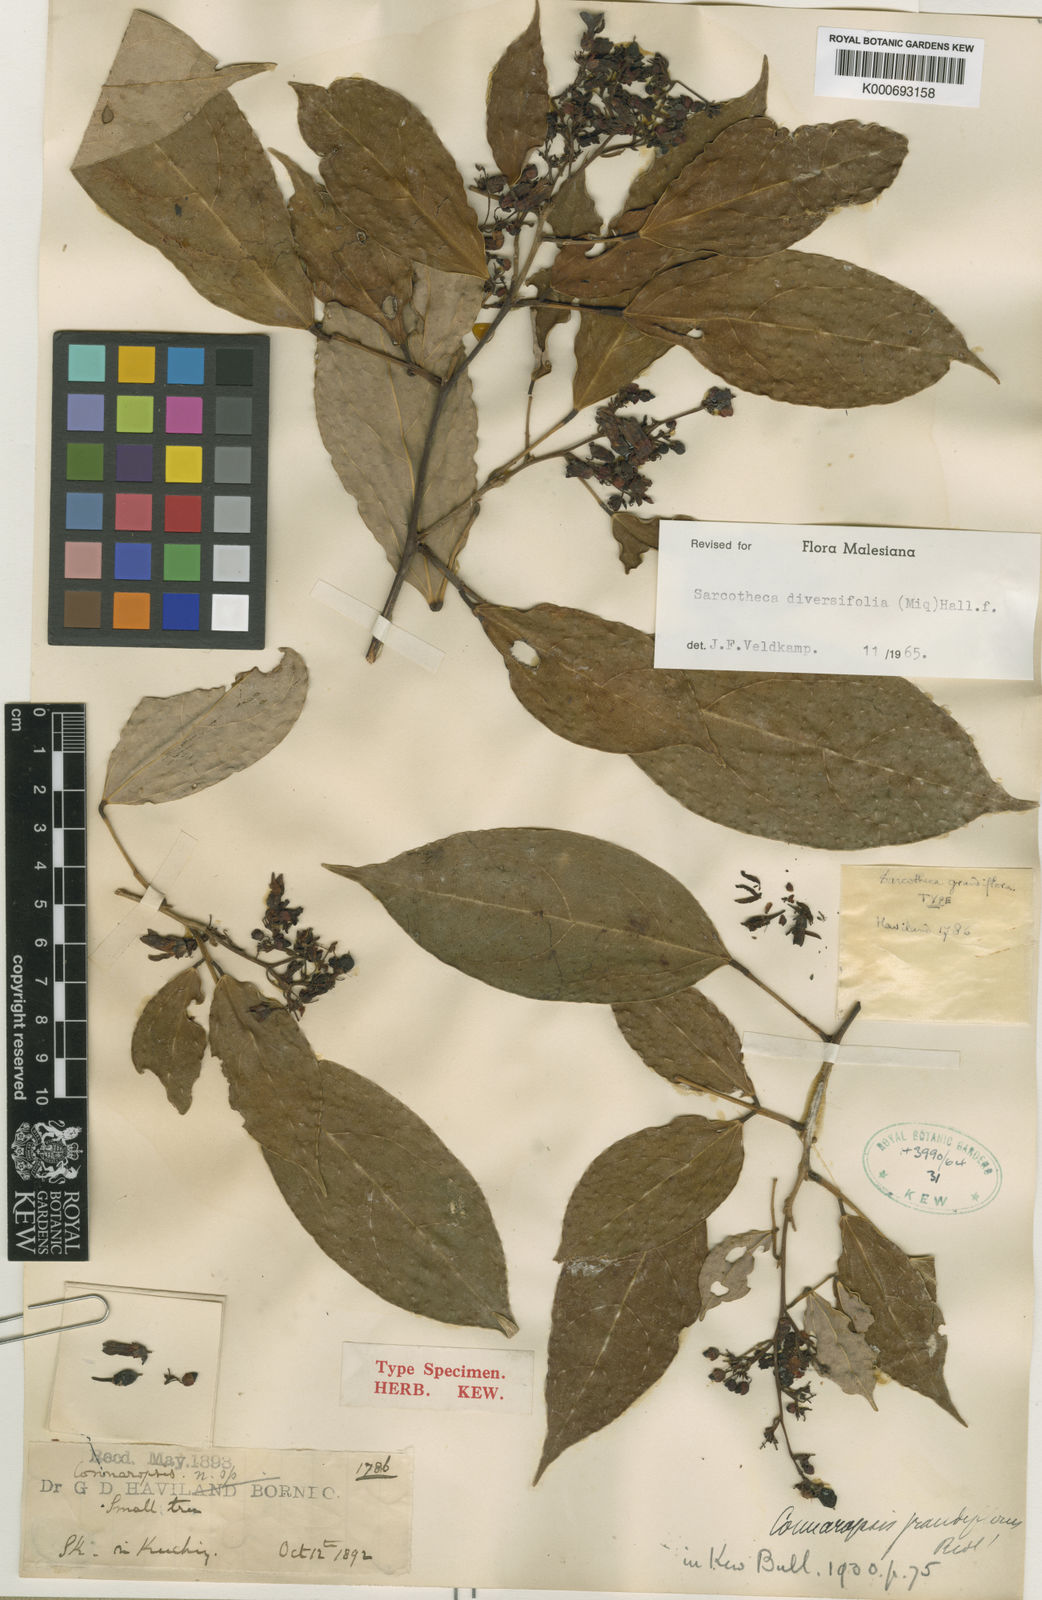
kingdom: Plantae
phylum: Tracheophyta
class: Magnoliopsida
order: Oxalidales
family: Oxalidaceae
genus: Sarcotheca
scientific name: Sarcotheca diversifolia
